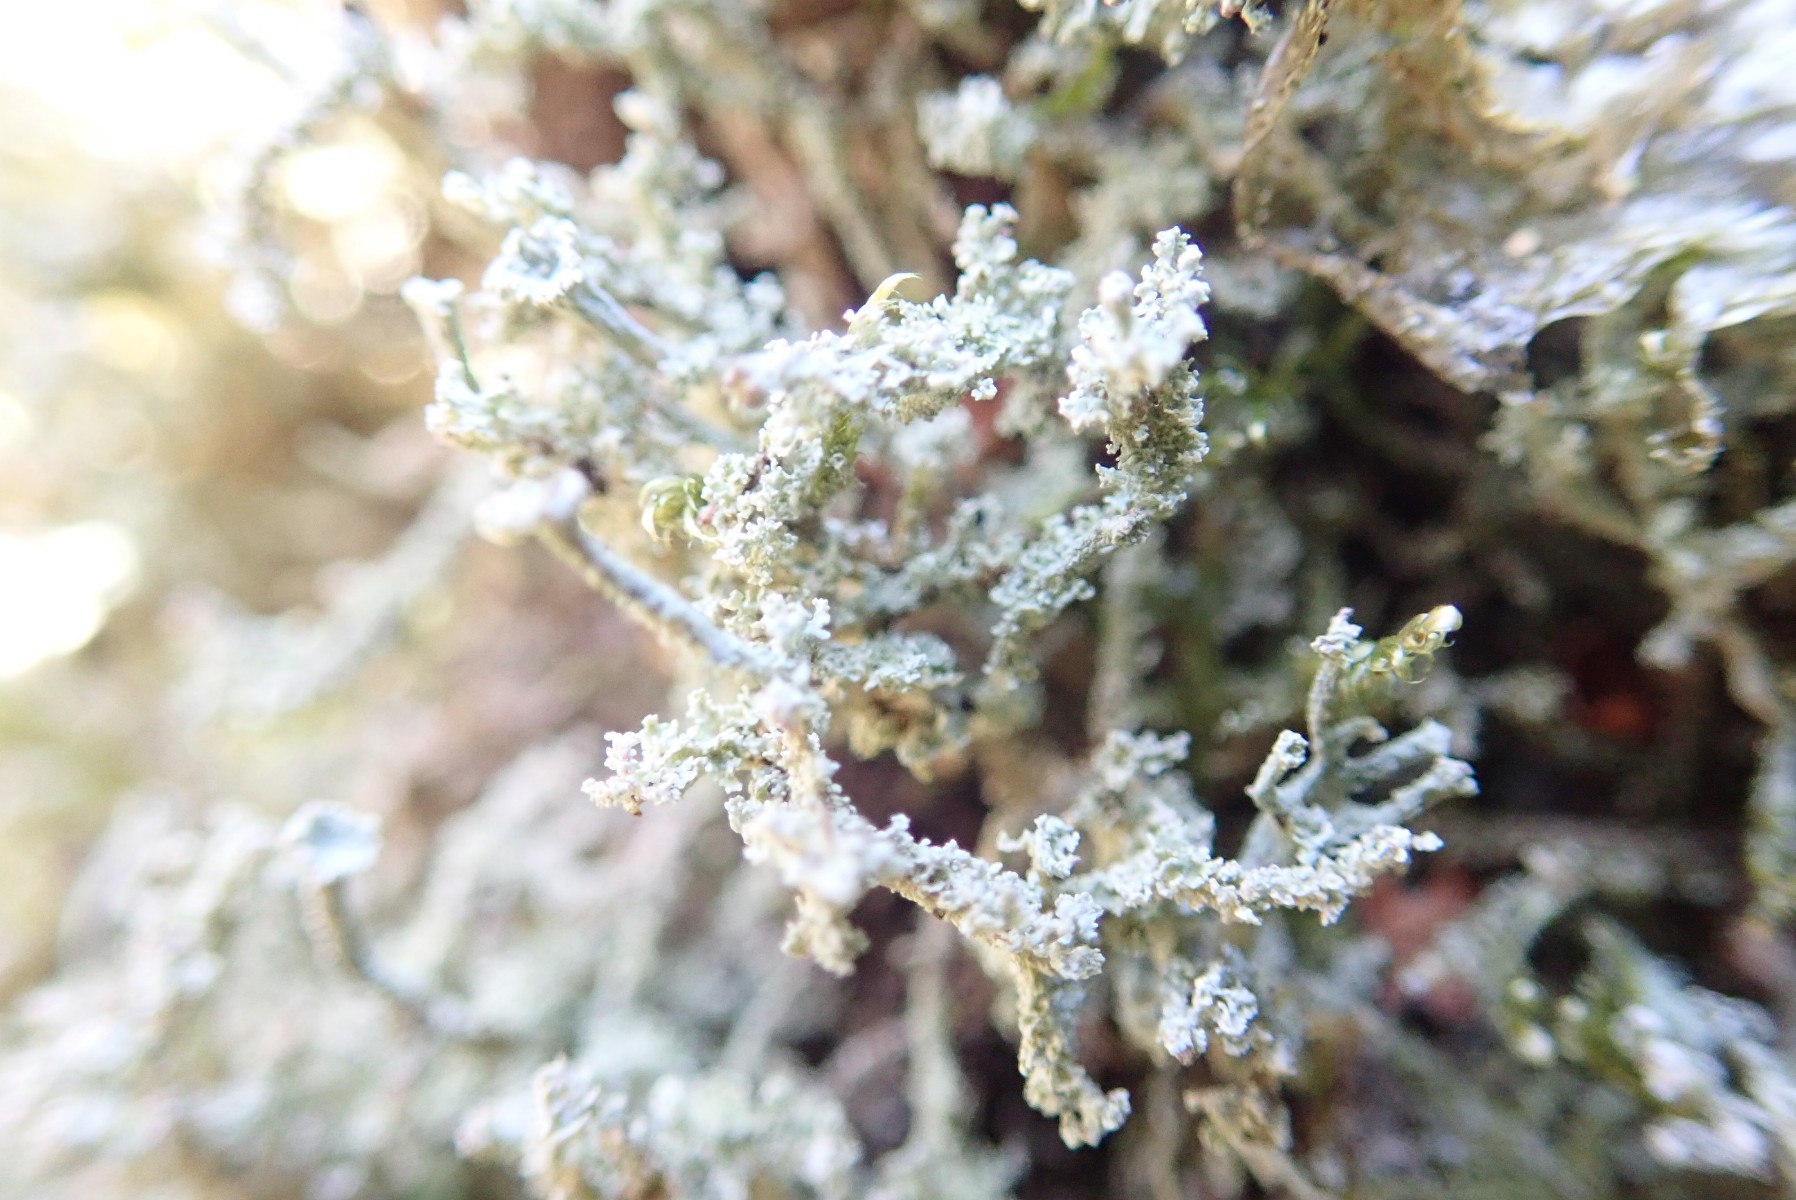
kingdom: Fungi
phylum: Ascomycota
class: Lecanoromycetes
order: Lecanorales
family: Cladoniaceae
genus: Cladonia
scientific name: Cladonia polydactyla
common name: vifte-bægerlav
